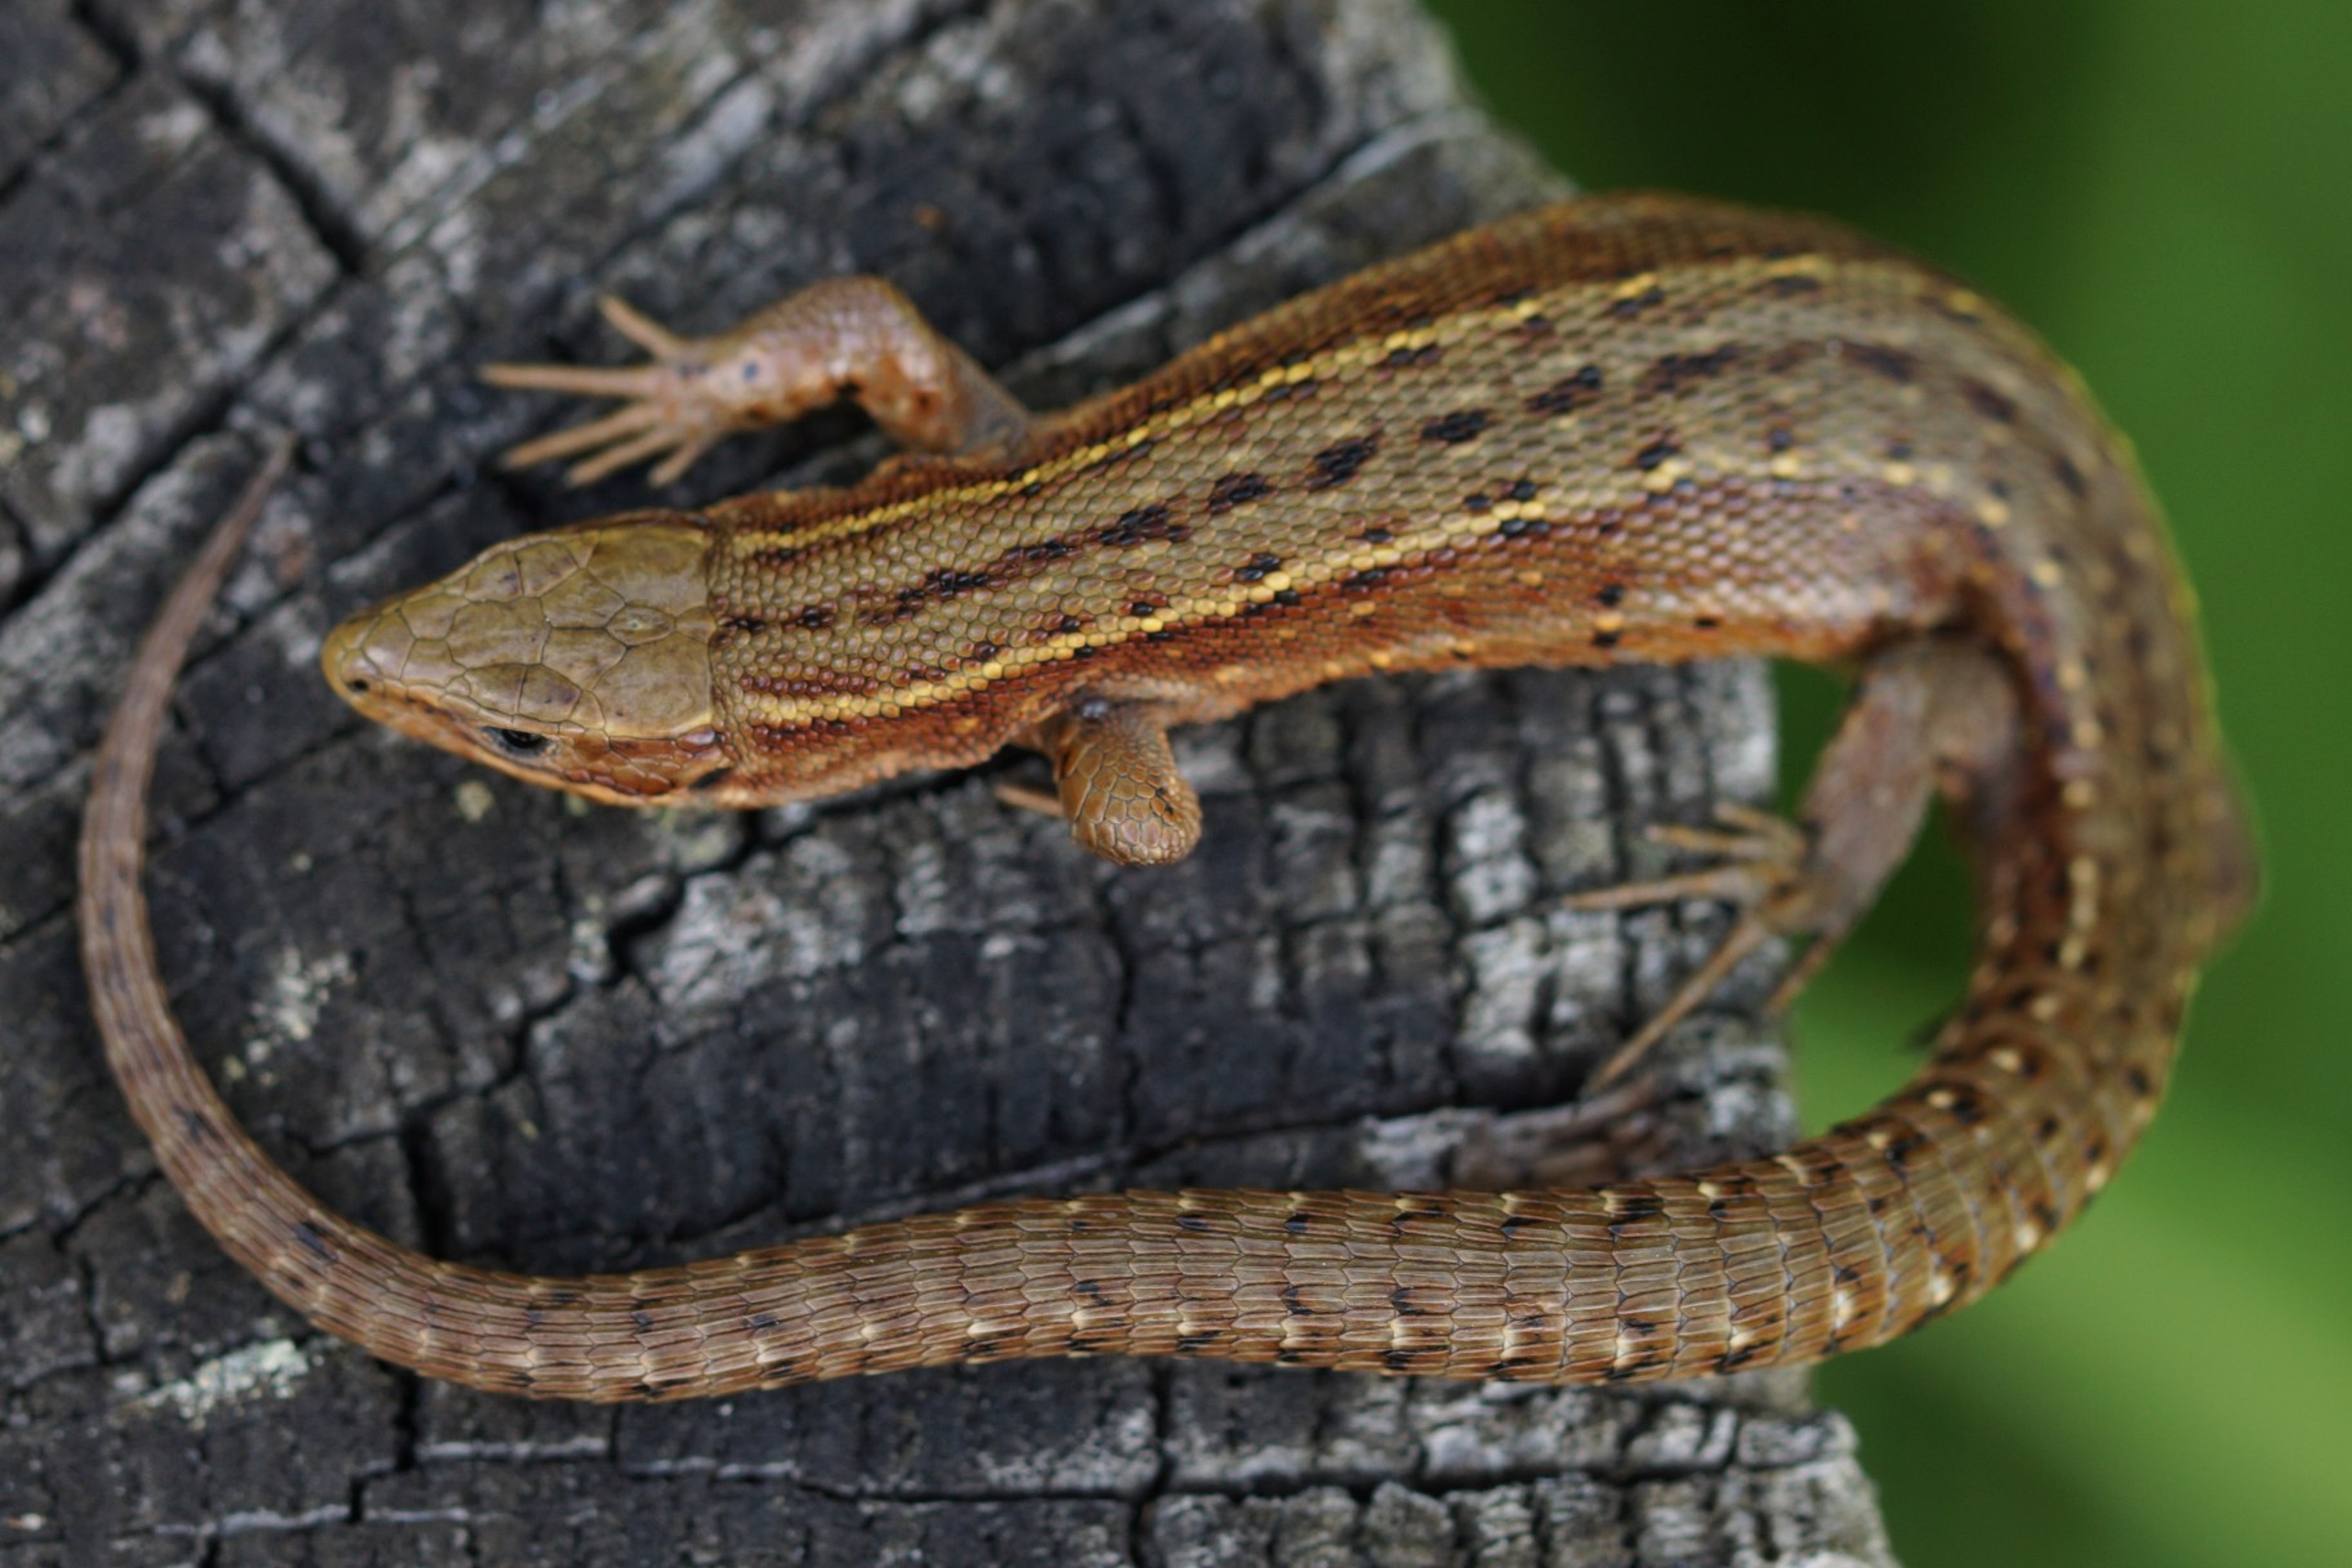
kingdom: Animalia
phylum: Chordata
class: Squamata
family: Lacertidae
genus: Zootoca
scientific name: Zootoca vivipara
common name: Skovfirben
